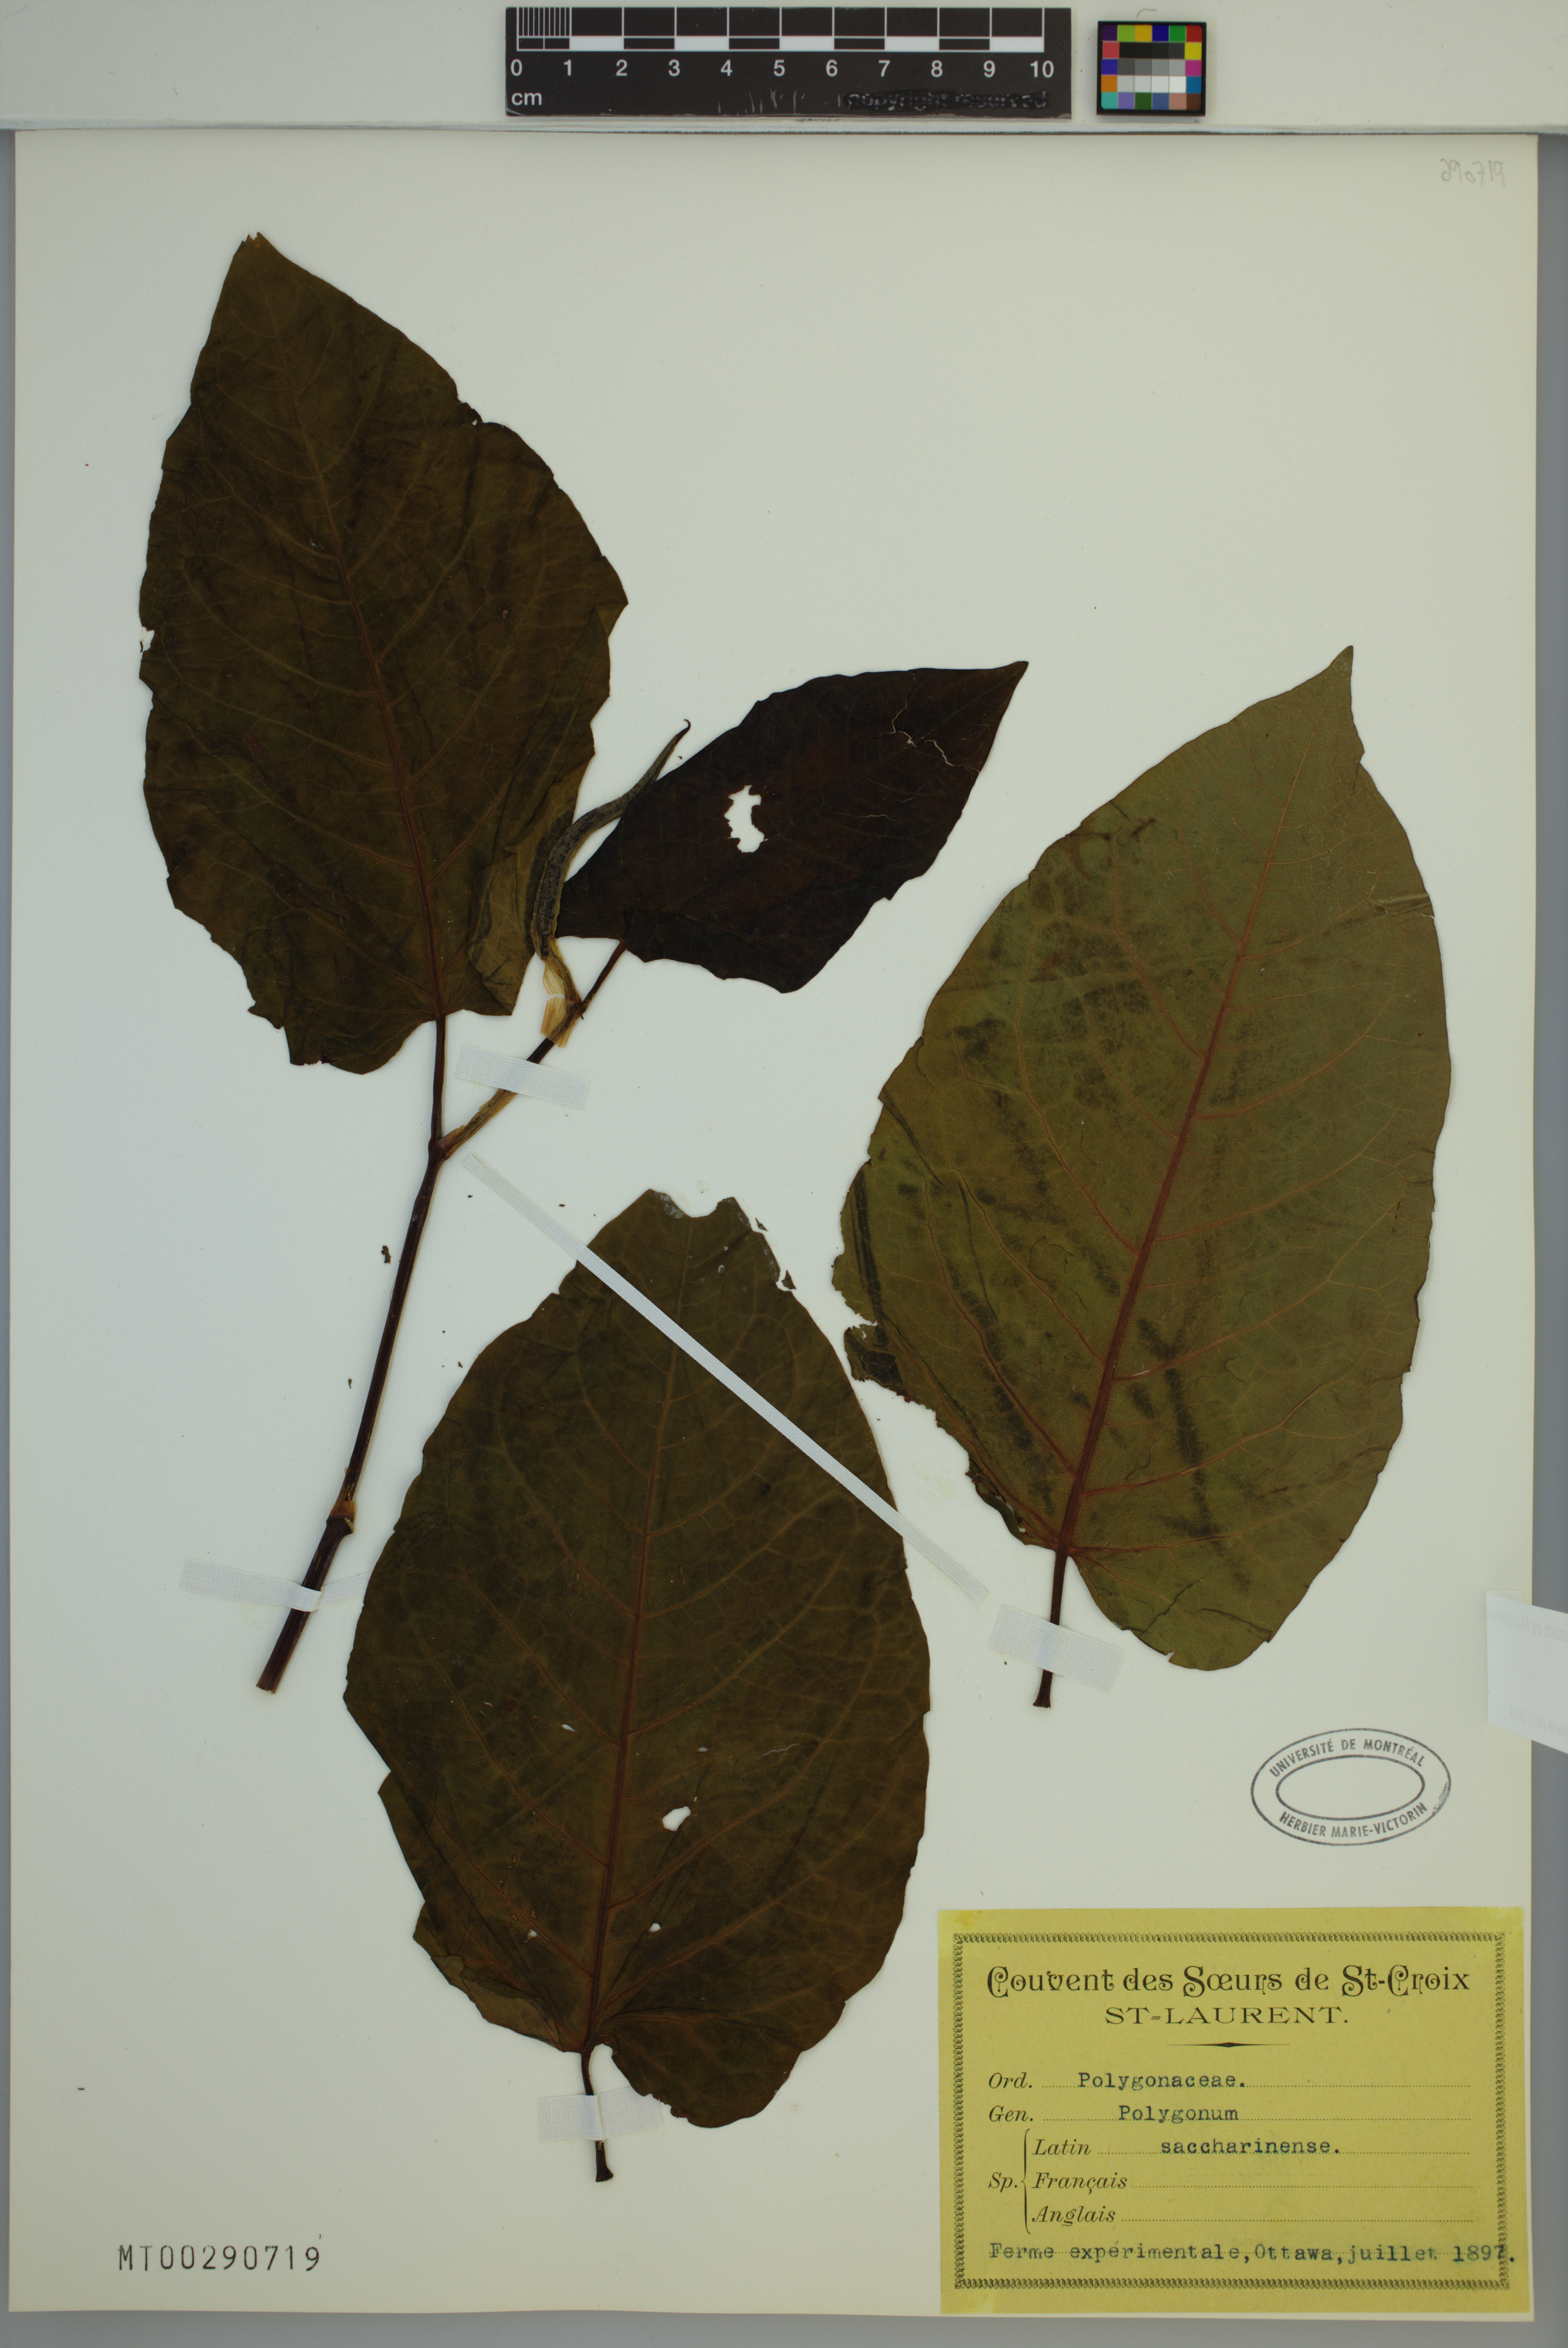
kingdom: Plantae
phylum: Tracheophyta
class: Magnoliopsida
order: Caryophyllales
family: Polygonaceae
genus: Reynoutria
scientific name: Reynoutria sachalinensis
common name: Giant knotweed
